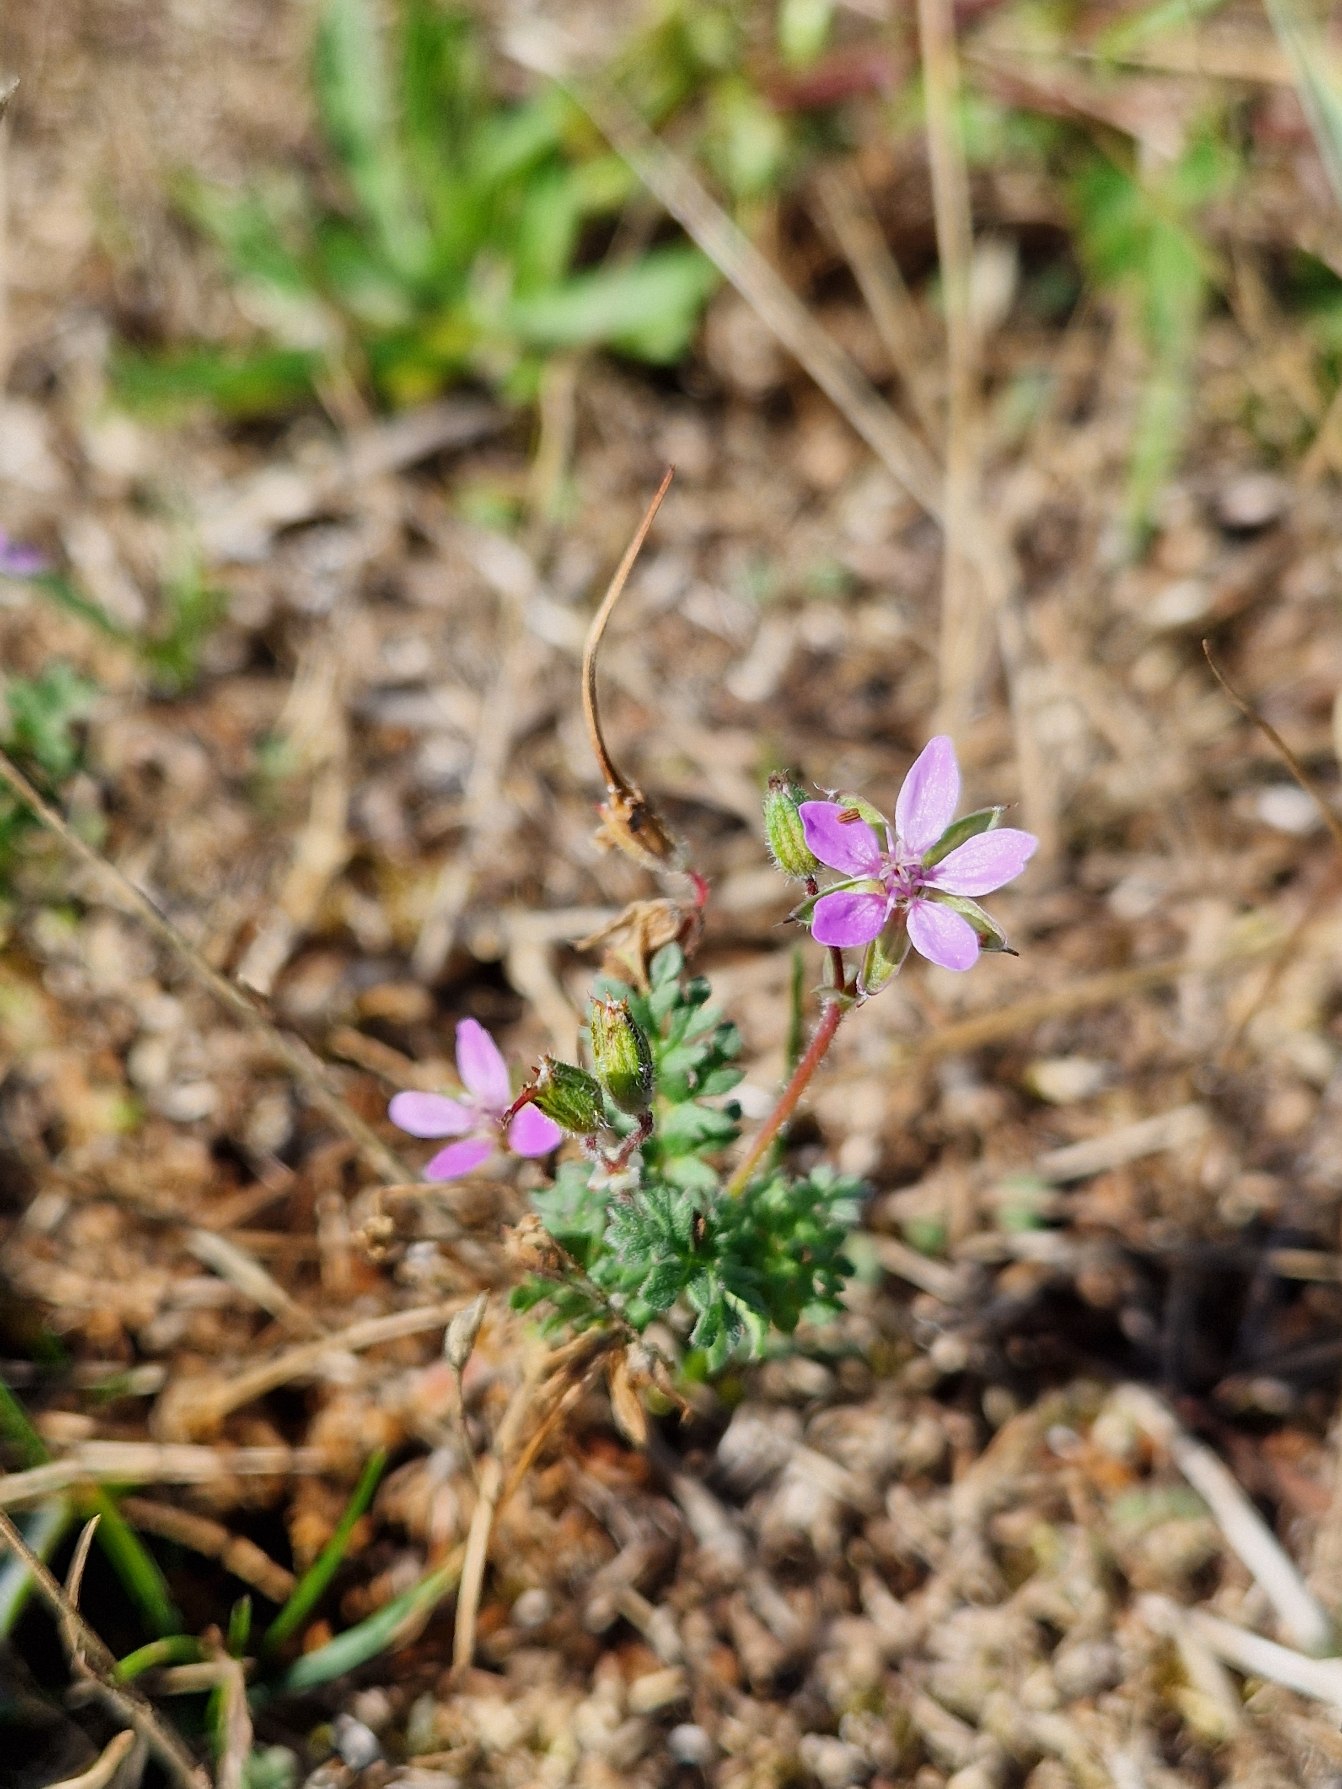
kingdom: Plantae
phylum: Tracheophyta
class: Magnoliopsida
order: Geraniales
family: Geraniaceae
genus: Erodium
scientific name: Erodium cicutarium
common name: Hejrenæb
